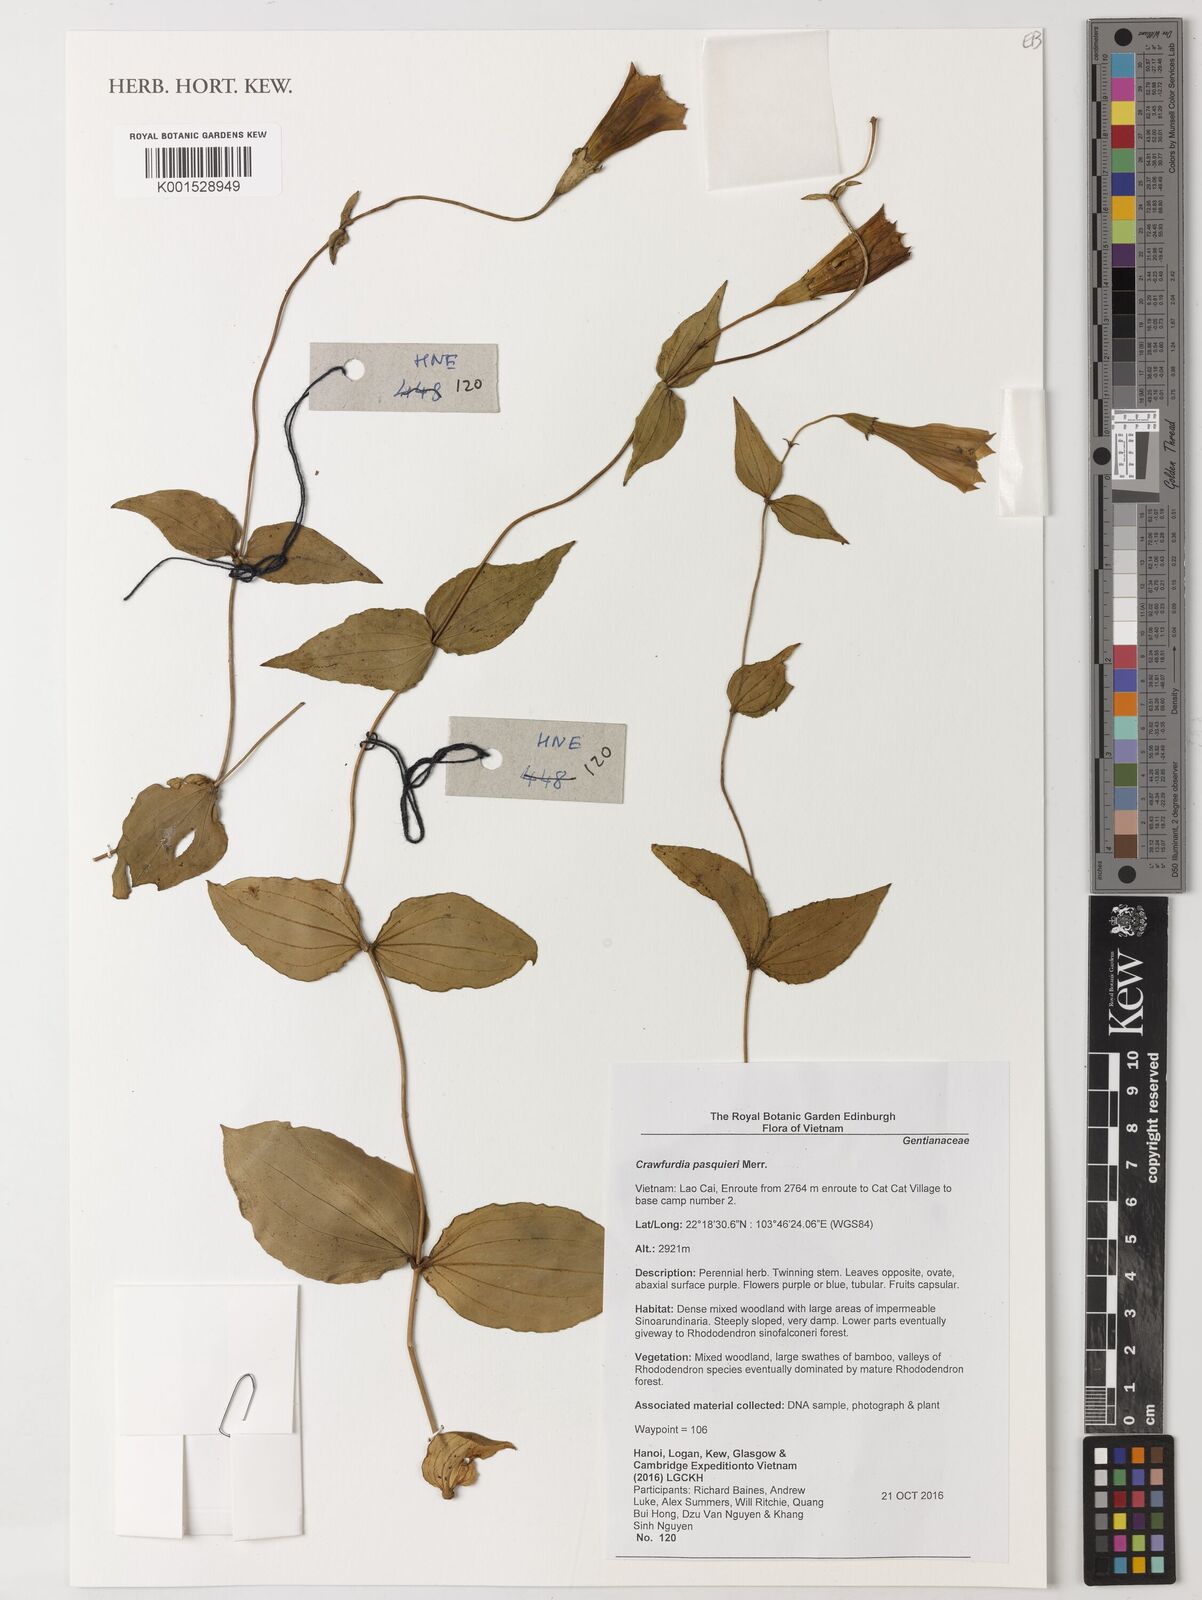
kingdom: Plantae
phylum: Tracheophyta
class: Magnoliopsida
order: Gentianales
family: Gentianaceae
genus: Crawfurdia
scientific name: Crawfurdia pasquieri
